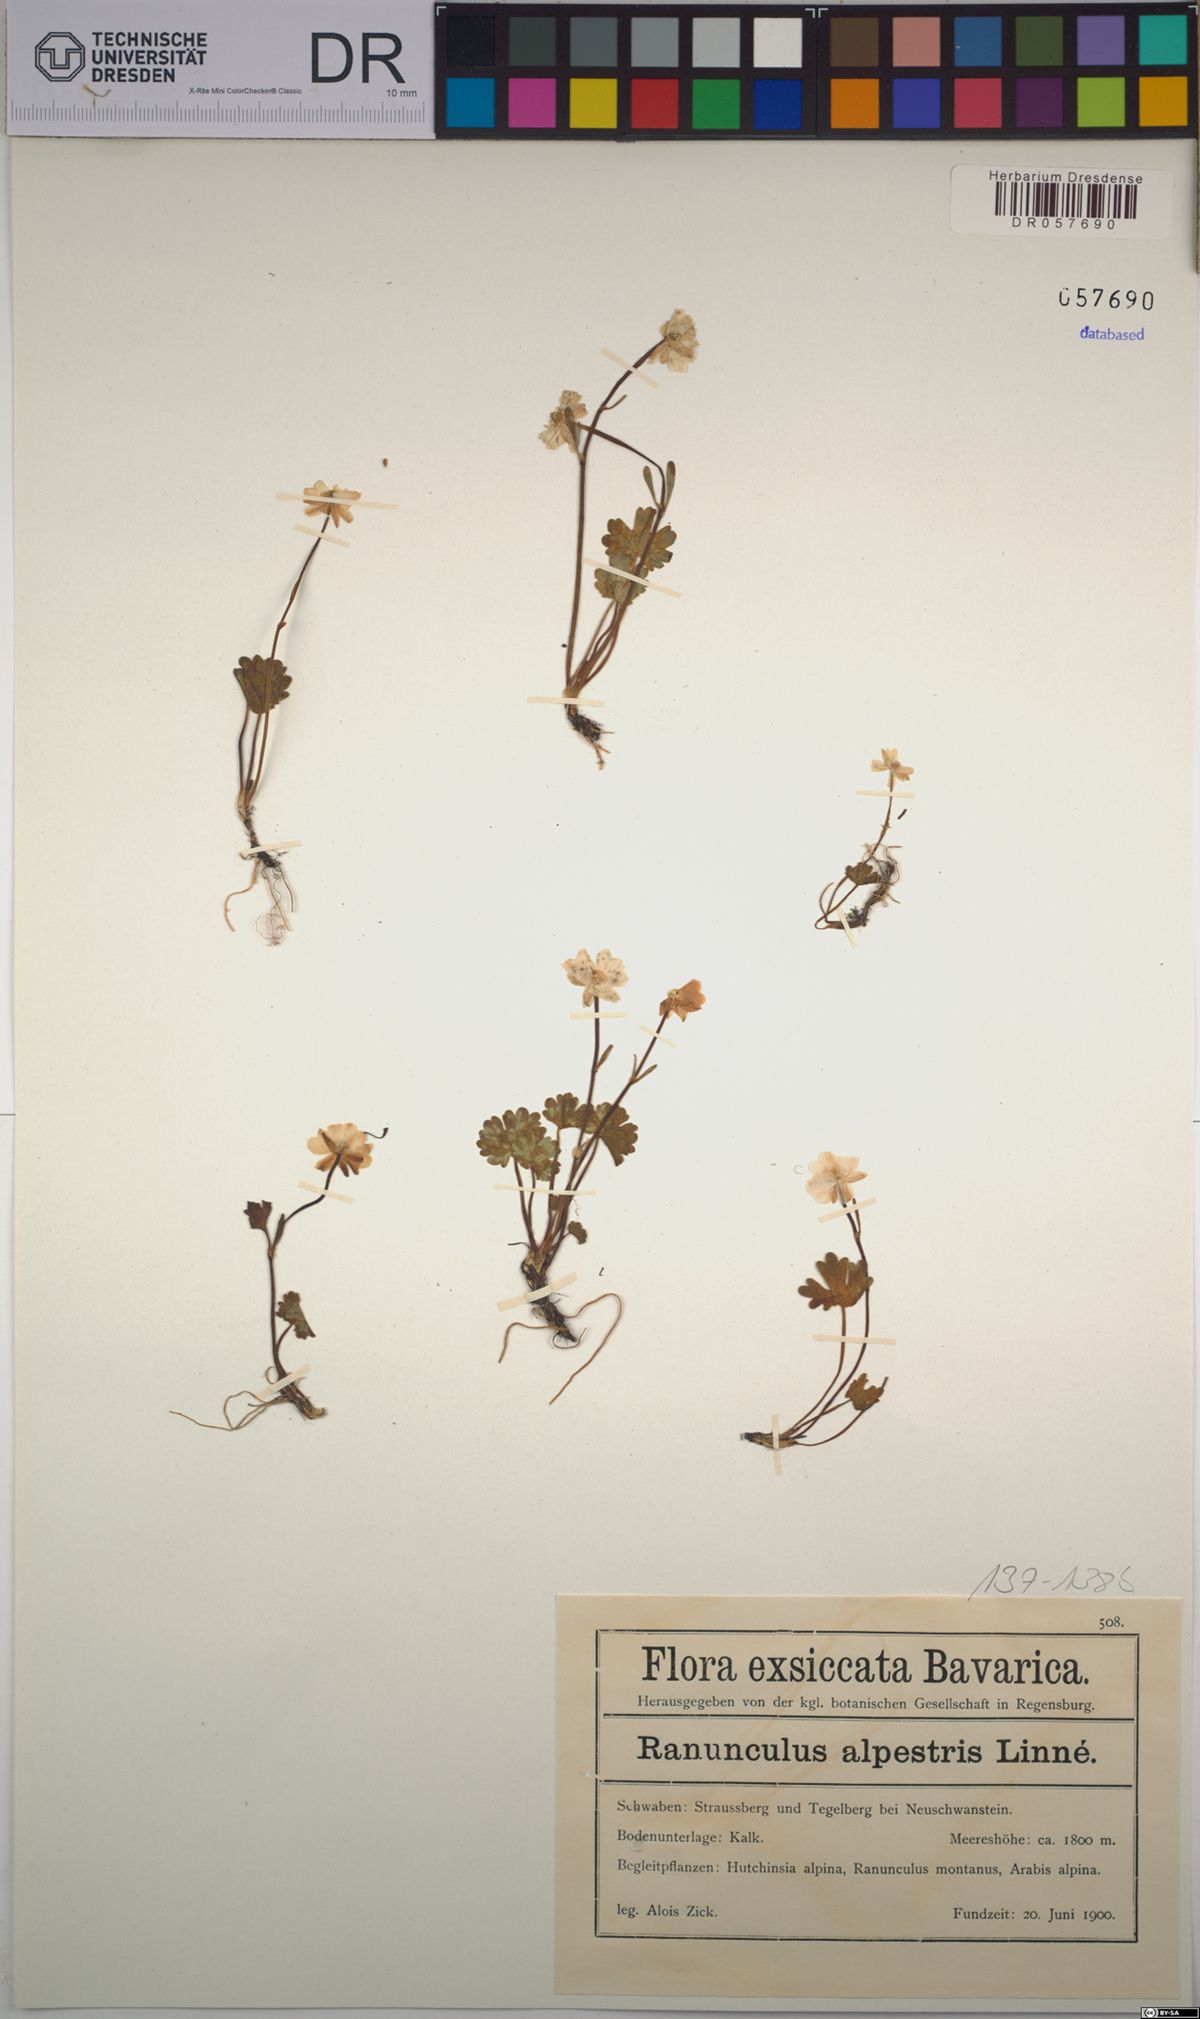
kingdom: Plantae
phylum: Tracheophyta
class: Magnoliopsida
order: Ranunculales
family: Ranunculaceae
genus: Ranunculus
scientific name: Ranunculus alpestris
